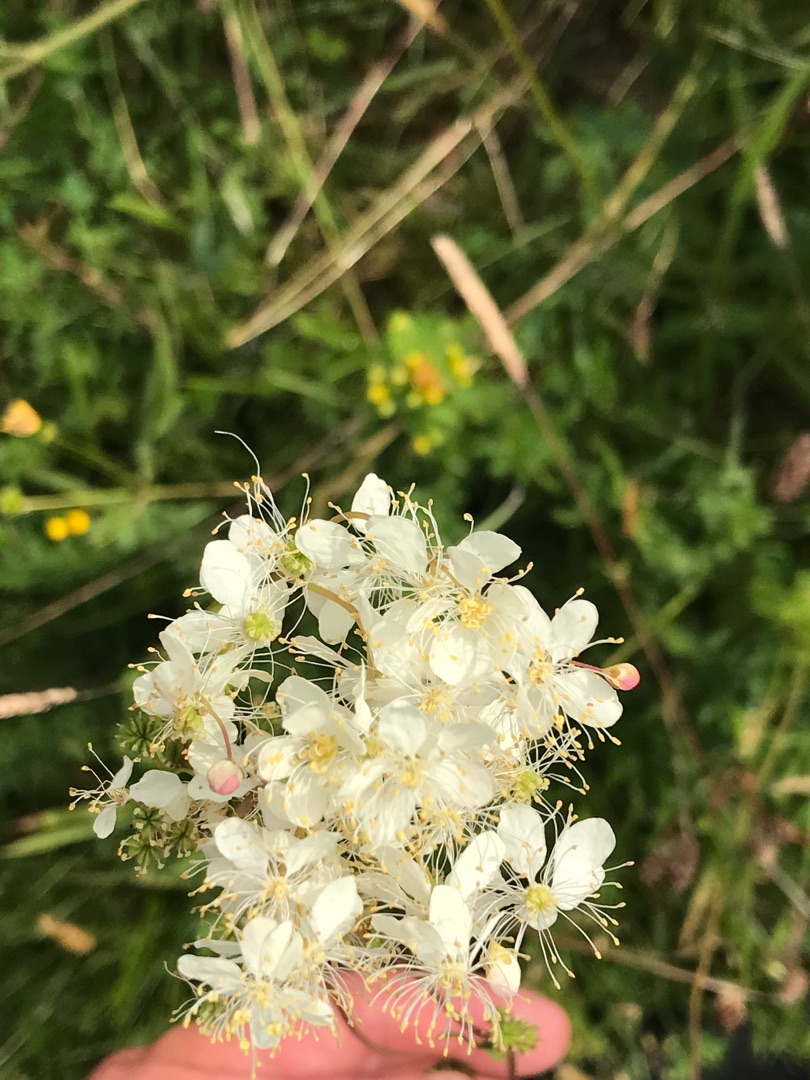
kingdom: Plantae
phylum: Tracheophyta
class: Magnoliopsida
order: Rosales
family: Rosaceae
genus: Filipendula
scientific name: Filipendula vulgaris
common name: Knoldet mjødurt
